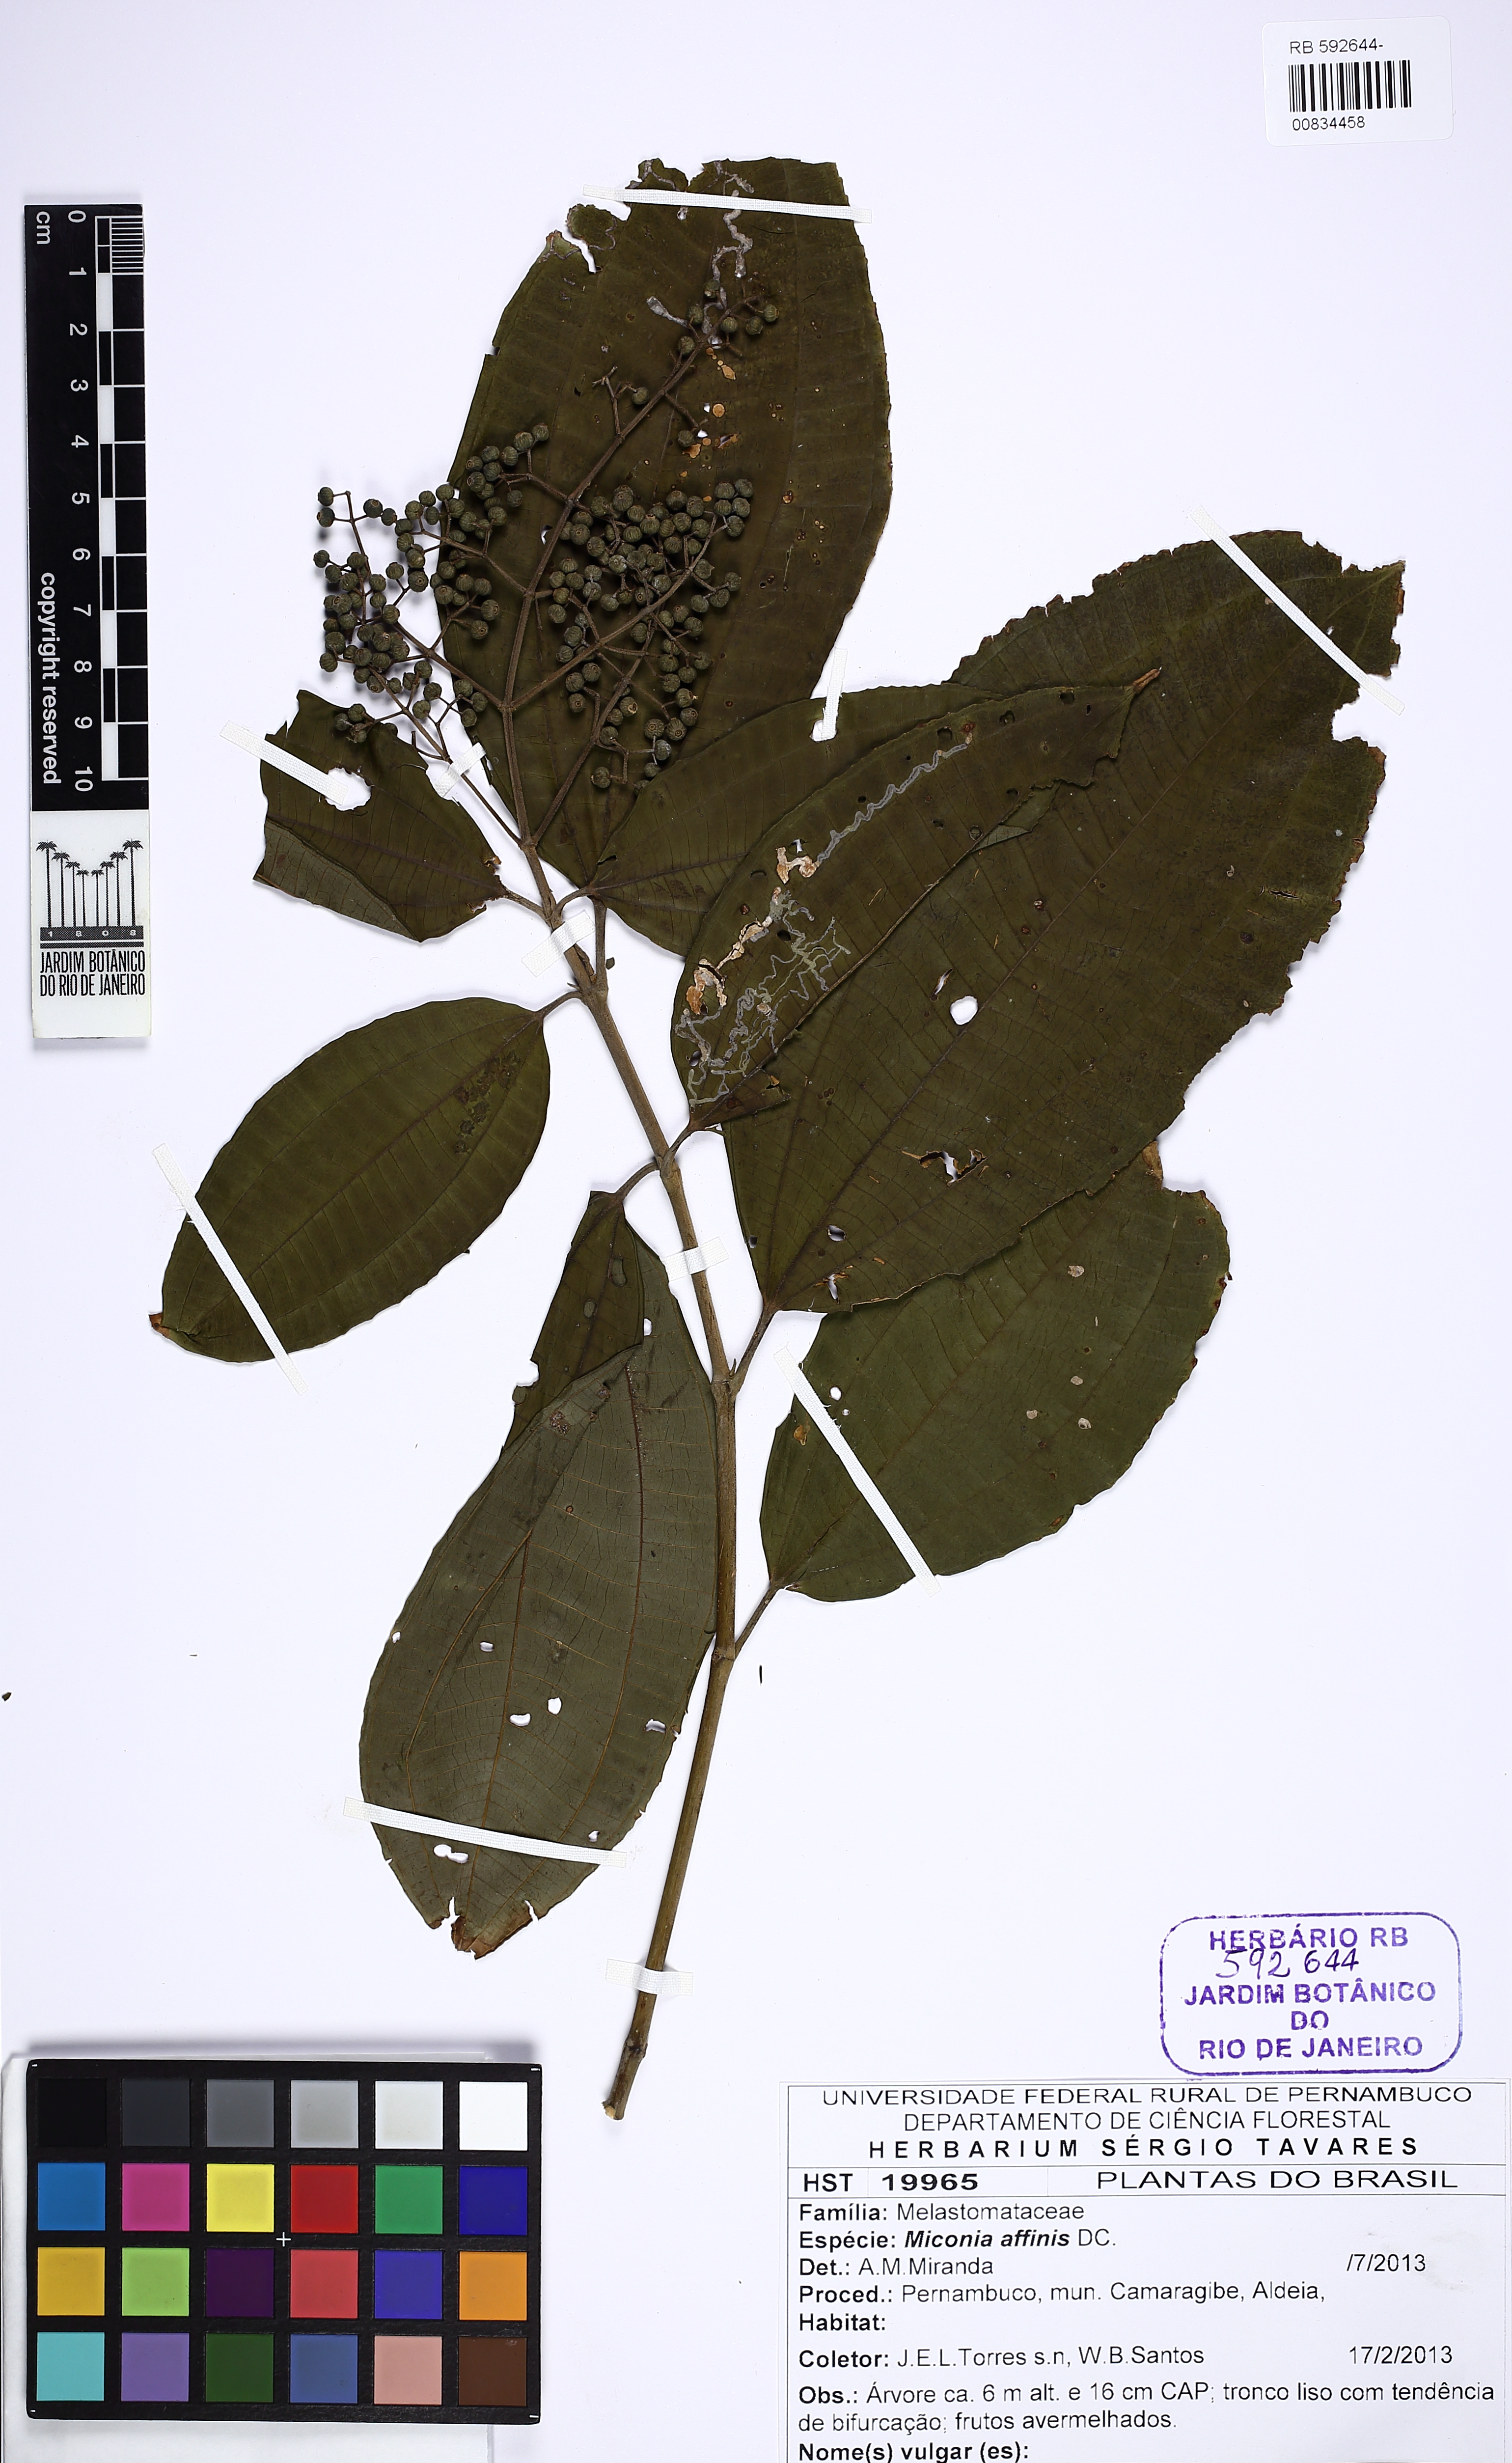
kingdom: Plantae
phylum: Tracheophyta
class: Magnoliopsida
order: Myrtales
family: Melastomataceae
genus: Miconia
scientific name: Miconia affinis
